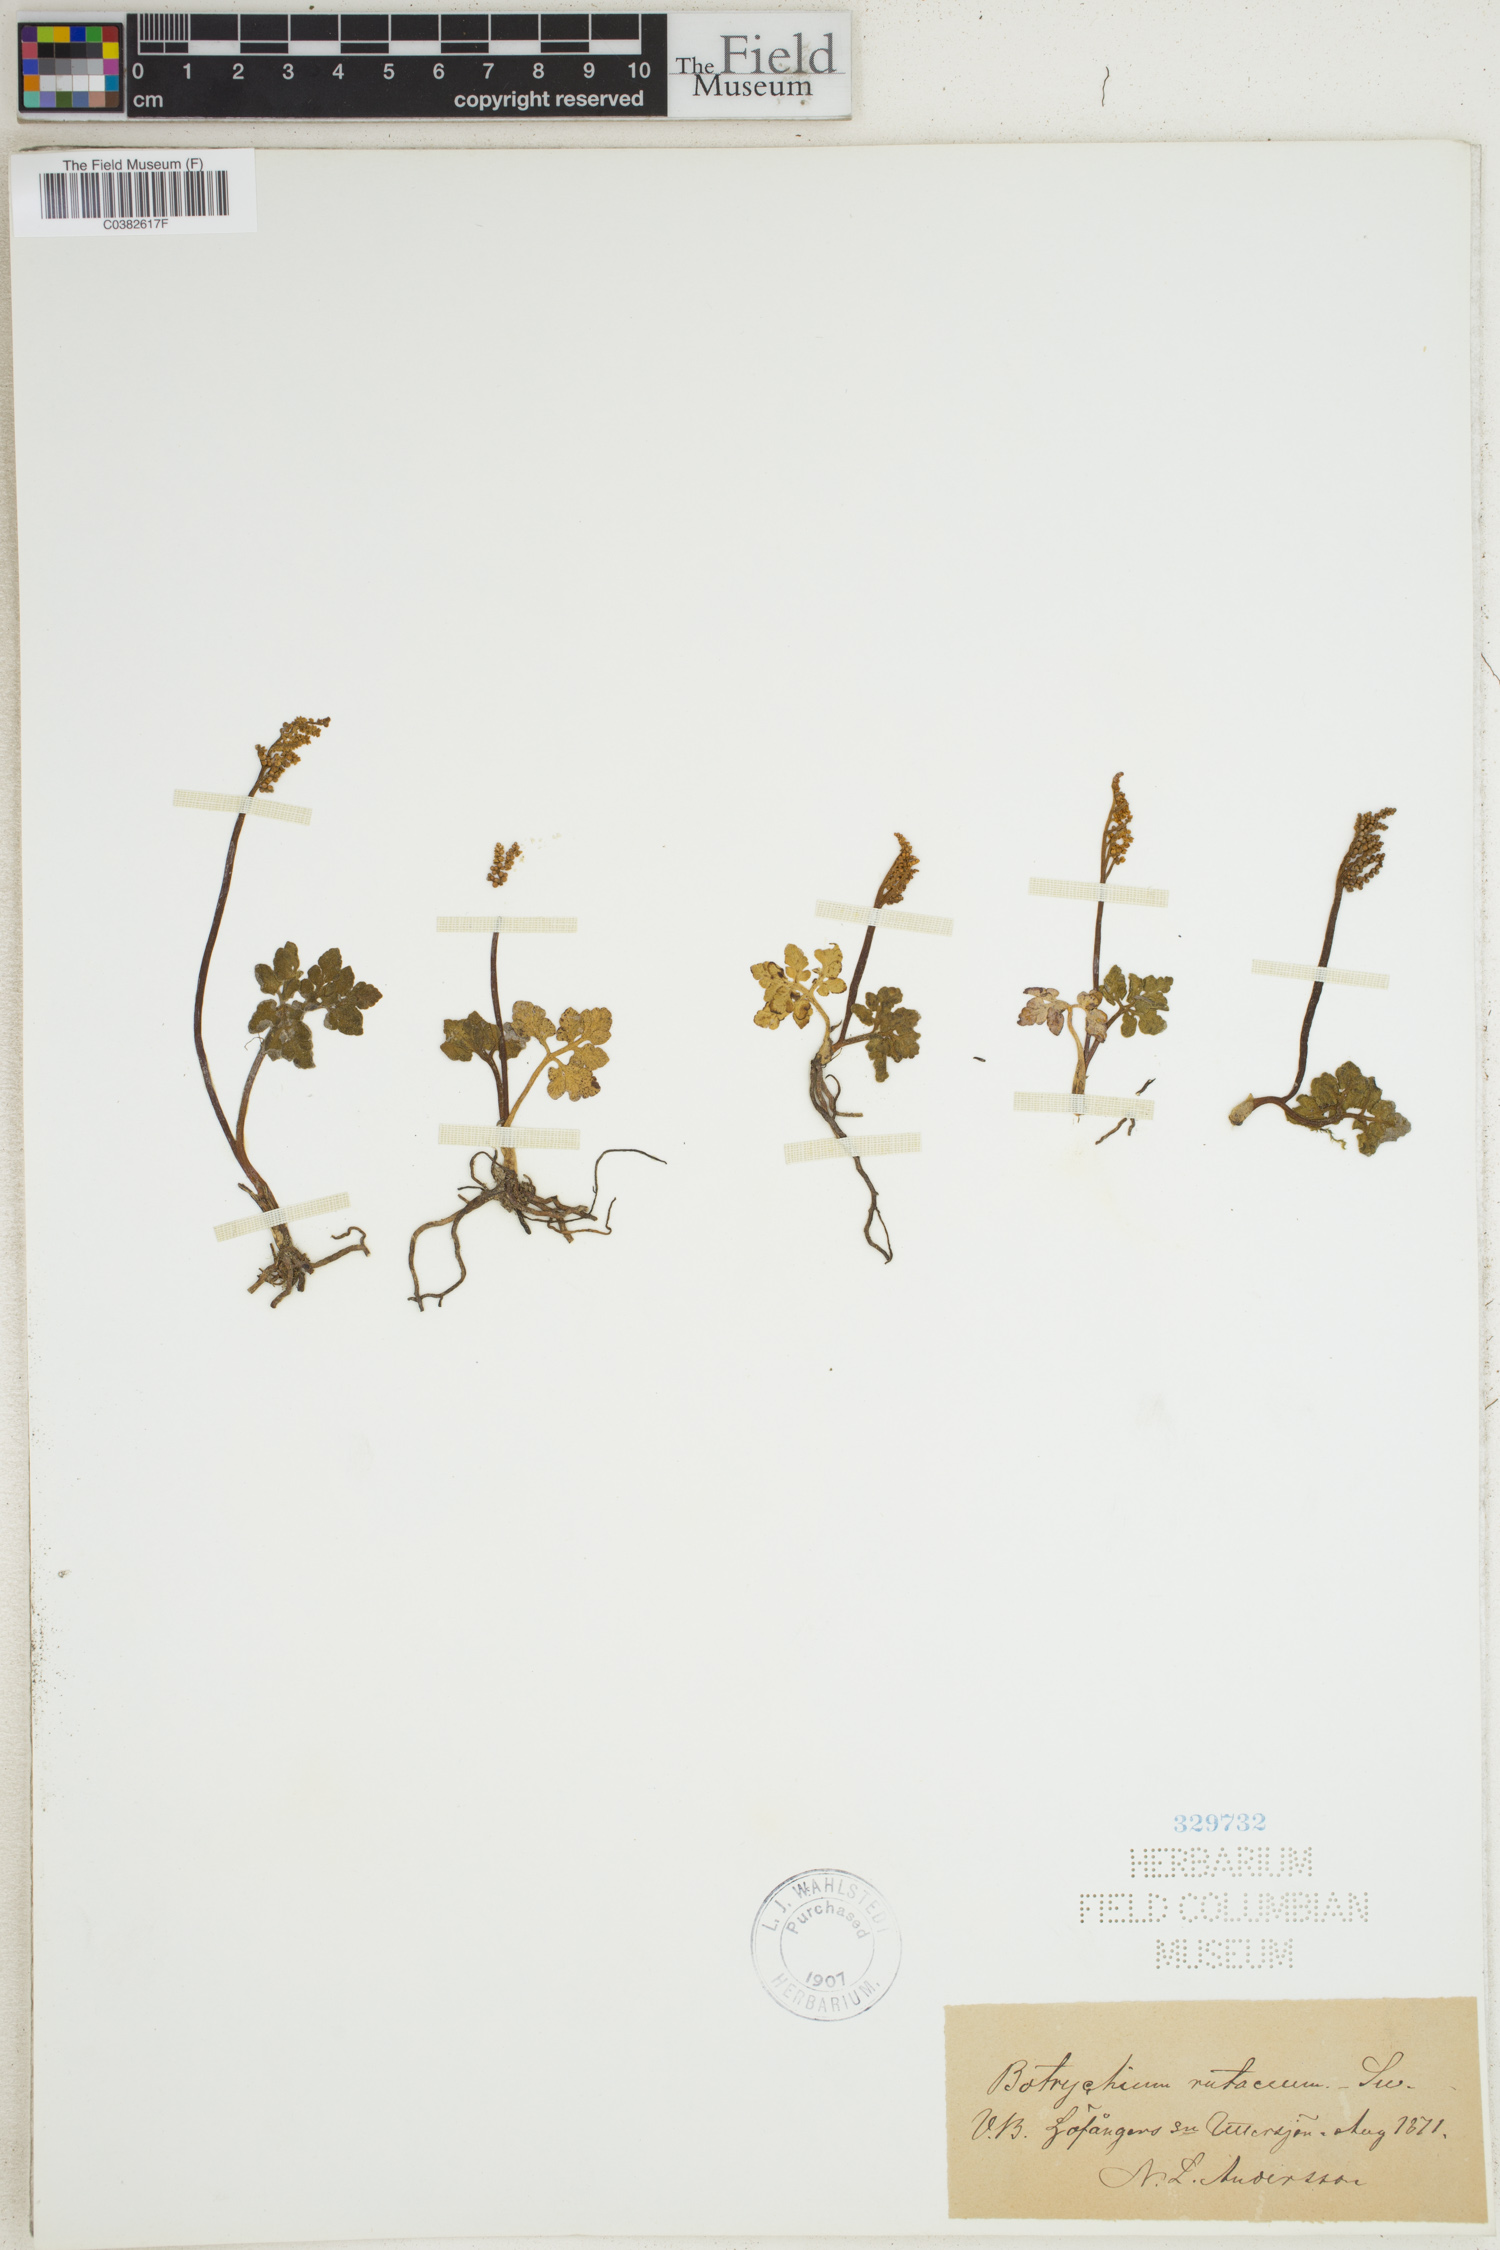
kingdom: Plantae
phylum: Tracheophyta
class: Polypodiopsida
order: Ophioglossales
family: Ophioglossaceae
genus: Botrychium
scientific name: Botrychium matricariifolium
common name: Branched moonwort
